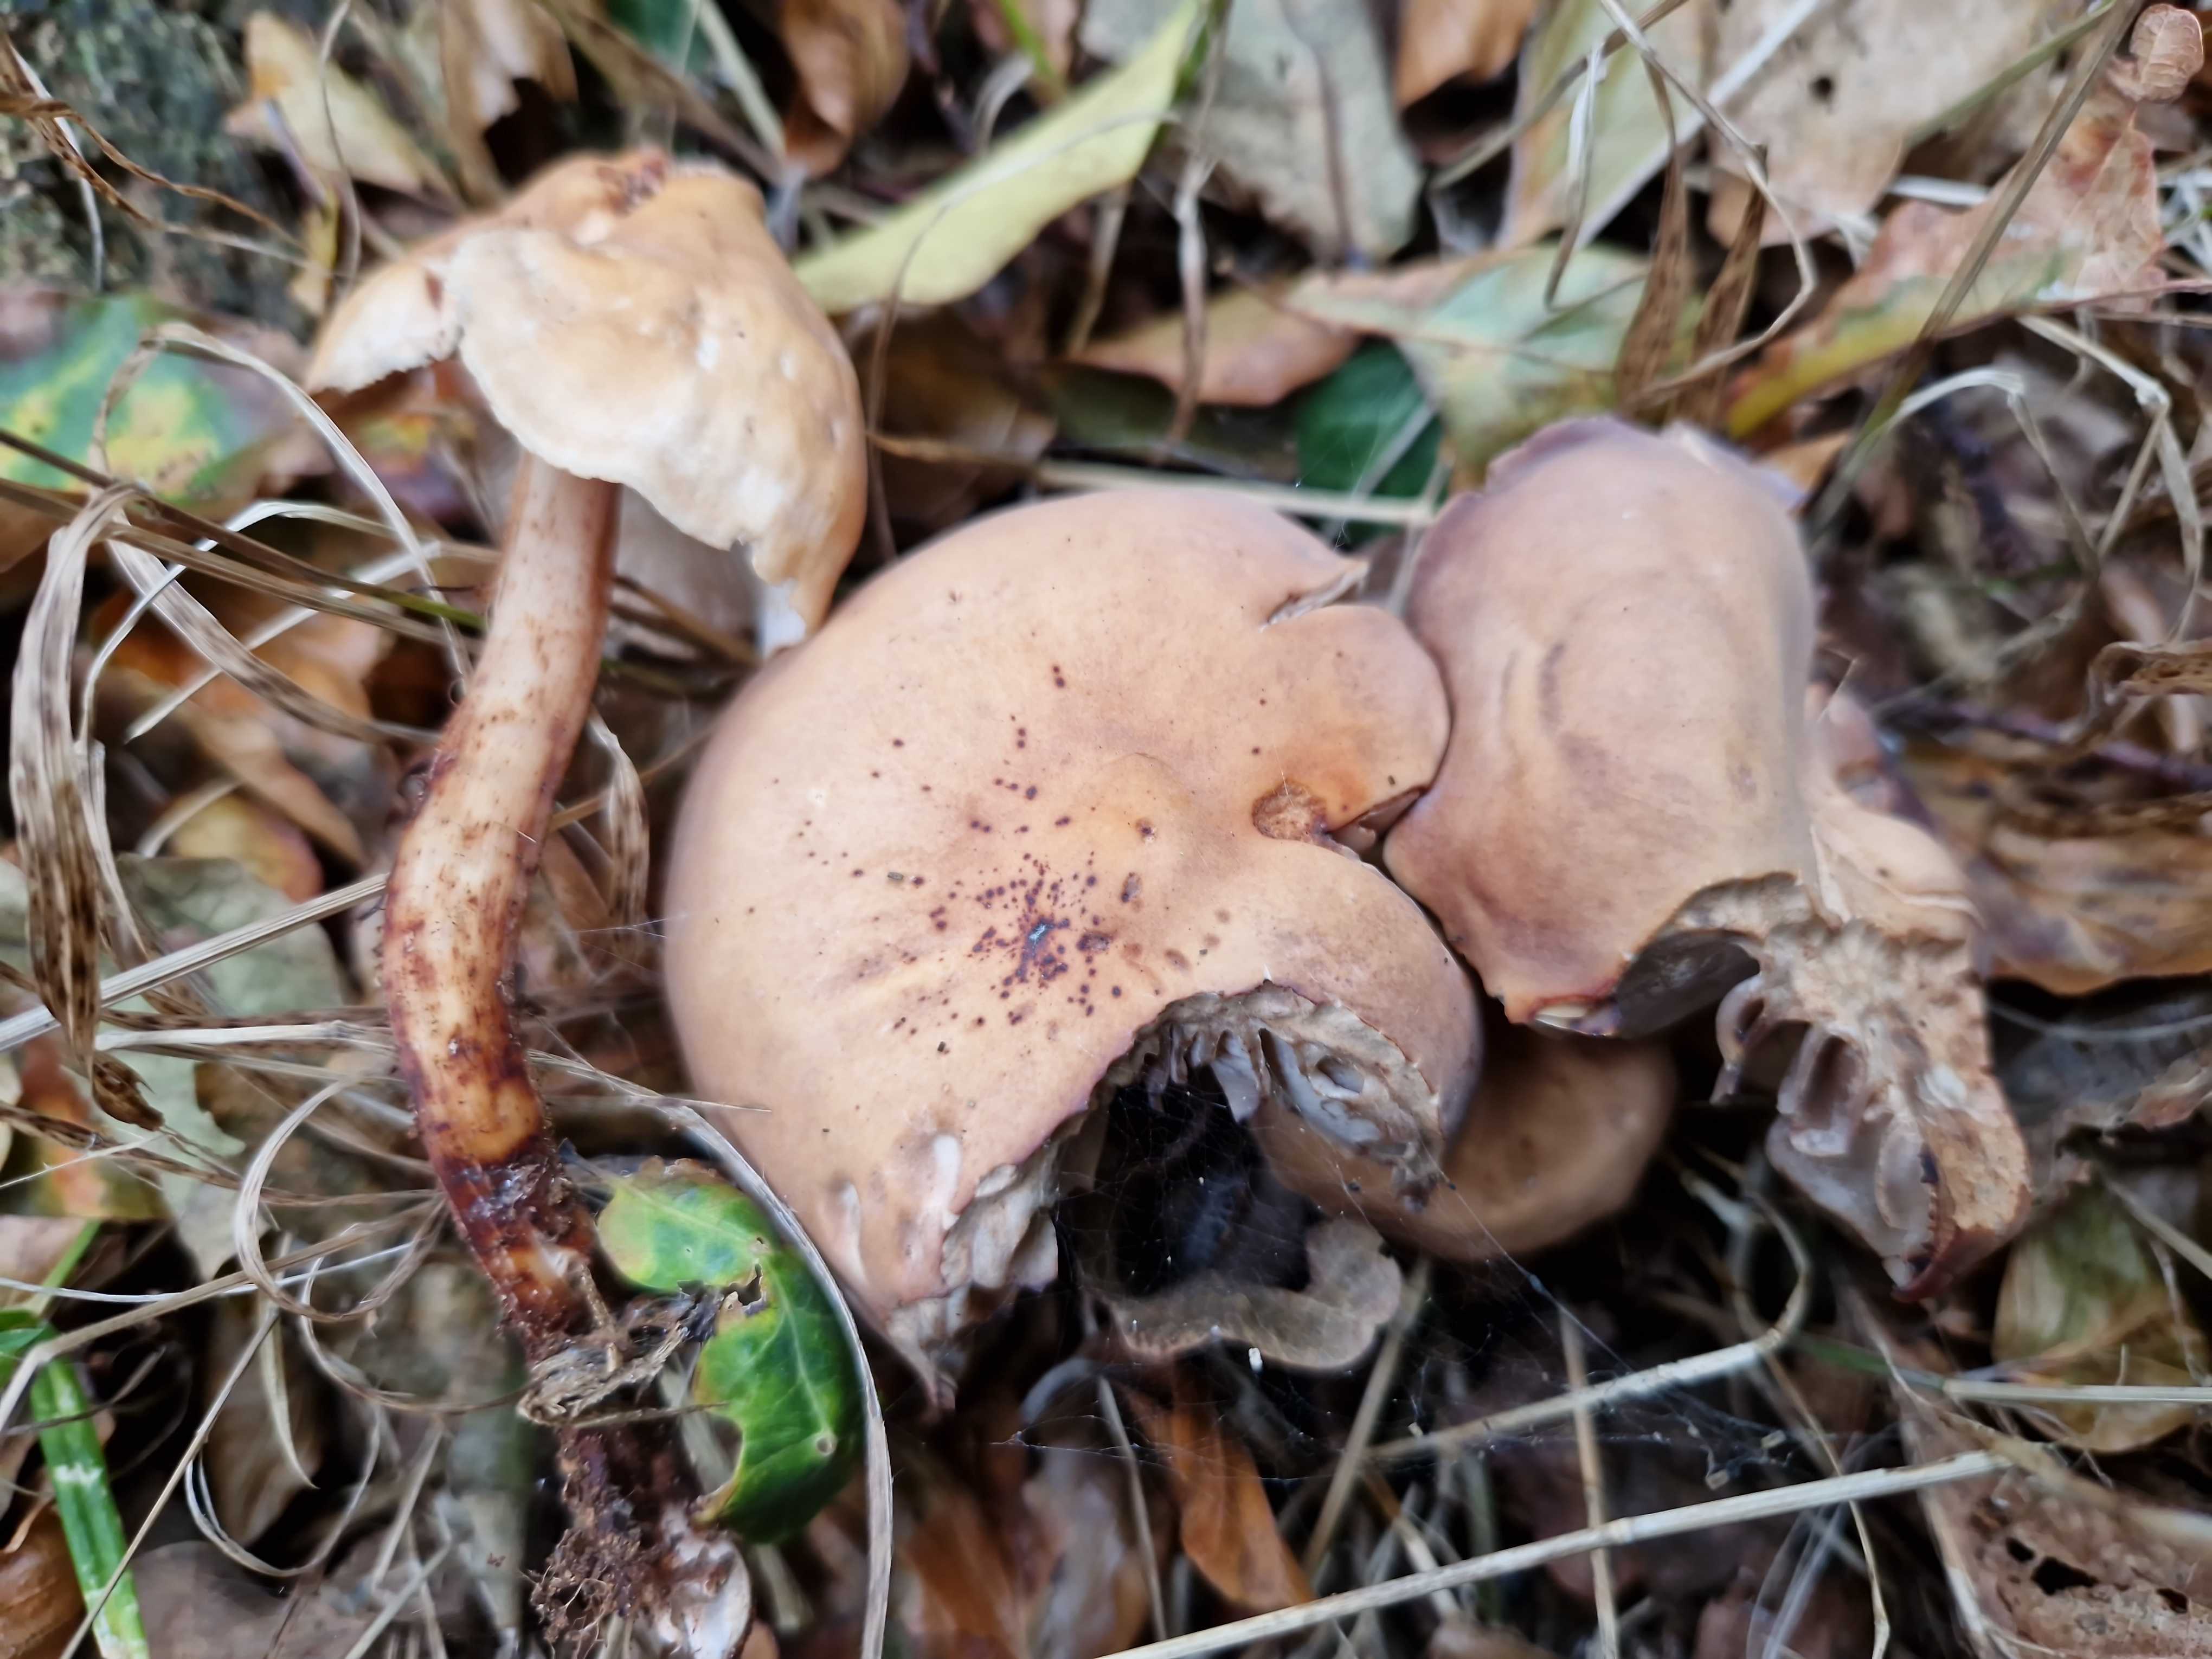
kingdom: Fungi
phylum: Basidiomycota
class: Agaricomycetes
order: Agaricales
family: Omphalotaceae
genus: Gymnopus
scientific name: Gymnopus fusipes
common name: tenstokket fladhat
